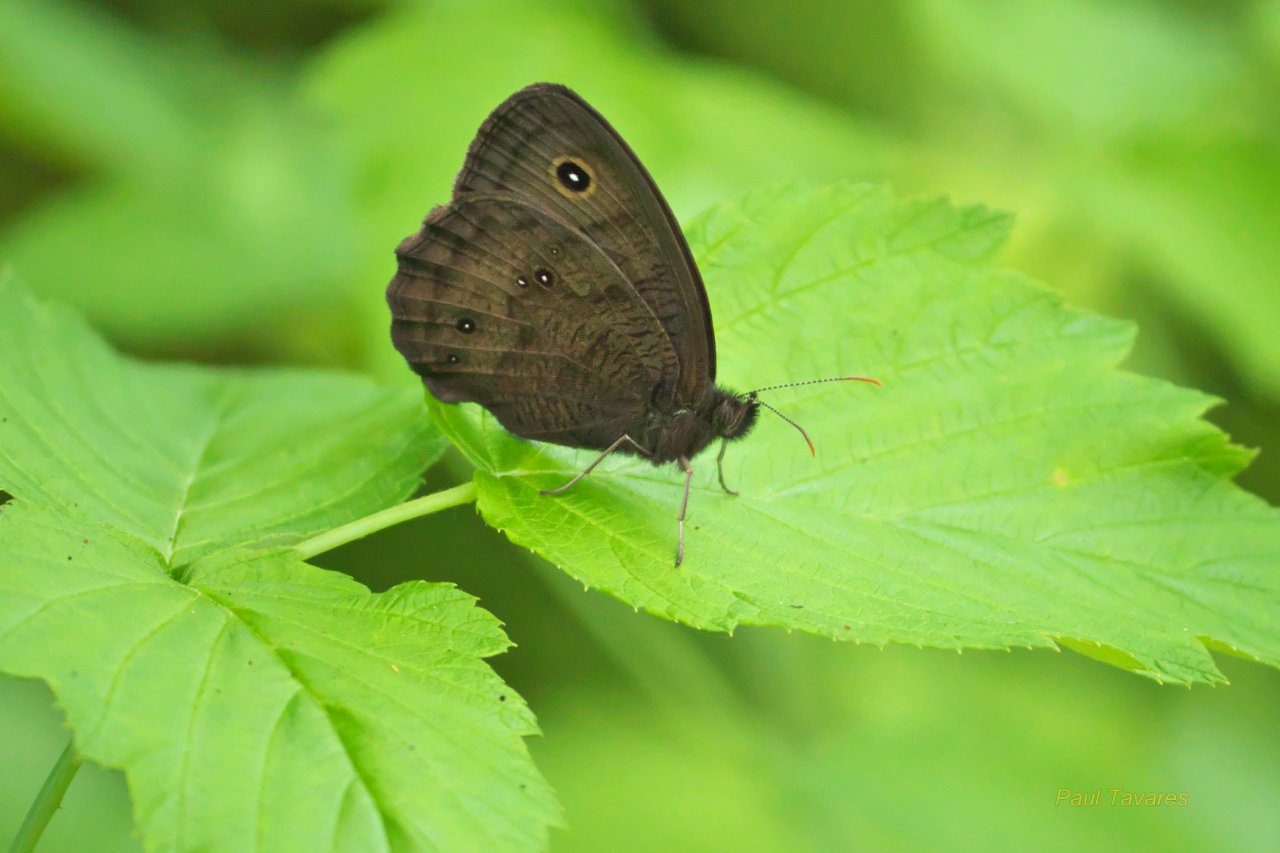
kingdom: Animalia
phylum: Arthropoda
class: Insecta
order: Lepidoptera
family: Nymphalidae
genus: Cercyonis
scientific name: Cercyonis pegala
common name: Common Wood-Nymph
